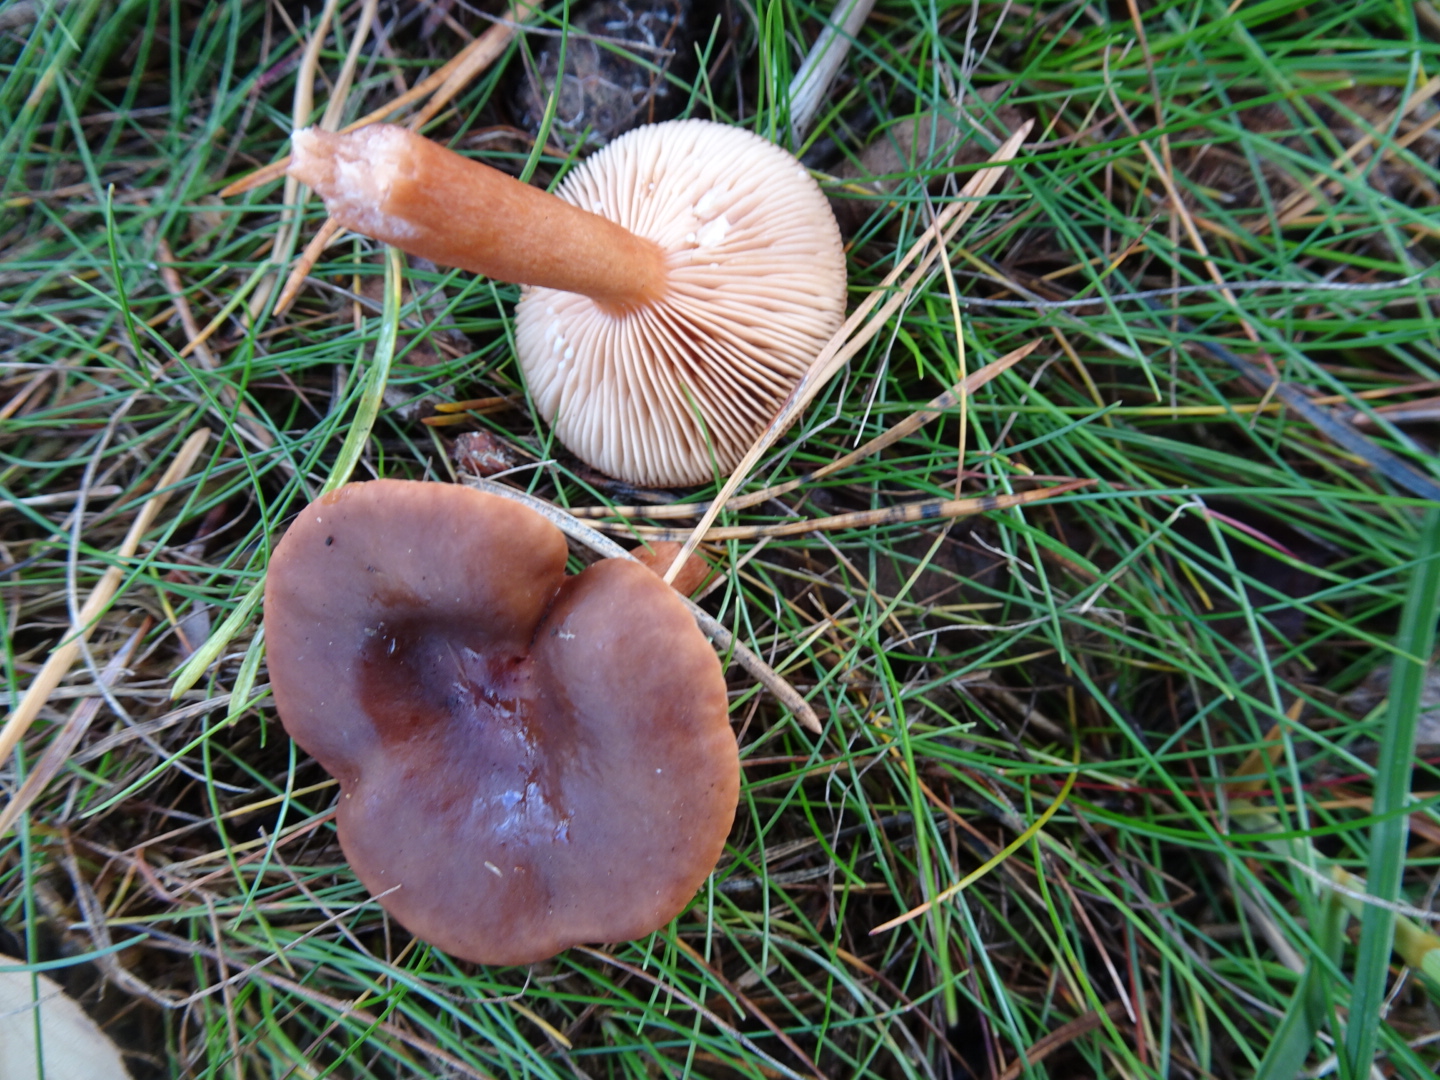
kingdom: Fungi
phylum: Basidiomycota
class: Agaricomycetes
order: Russulales
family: Russulaceae
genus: Lactarius
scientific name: Lactarius hepaticus
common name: leverbrun mælkehat
